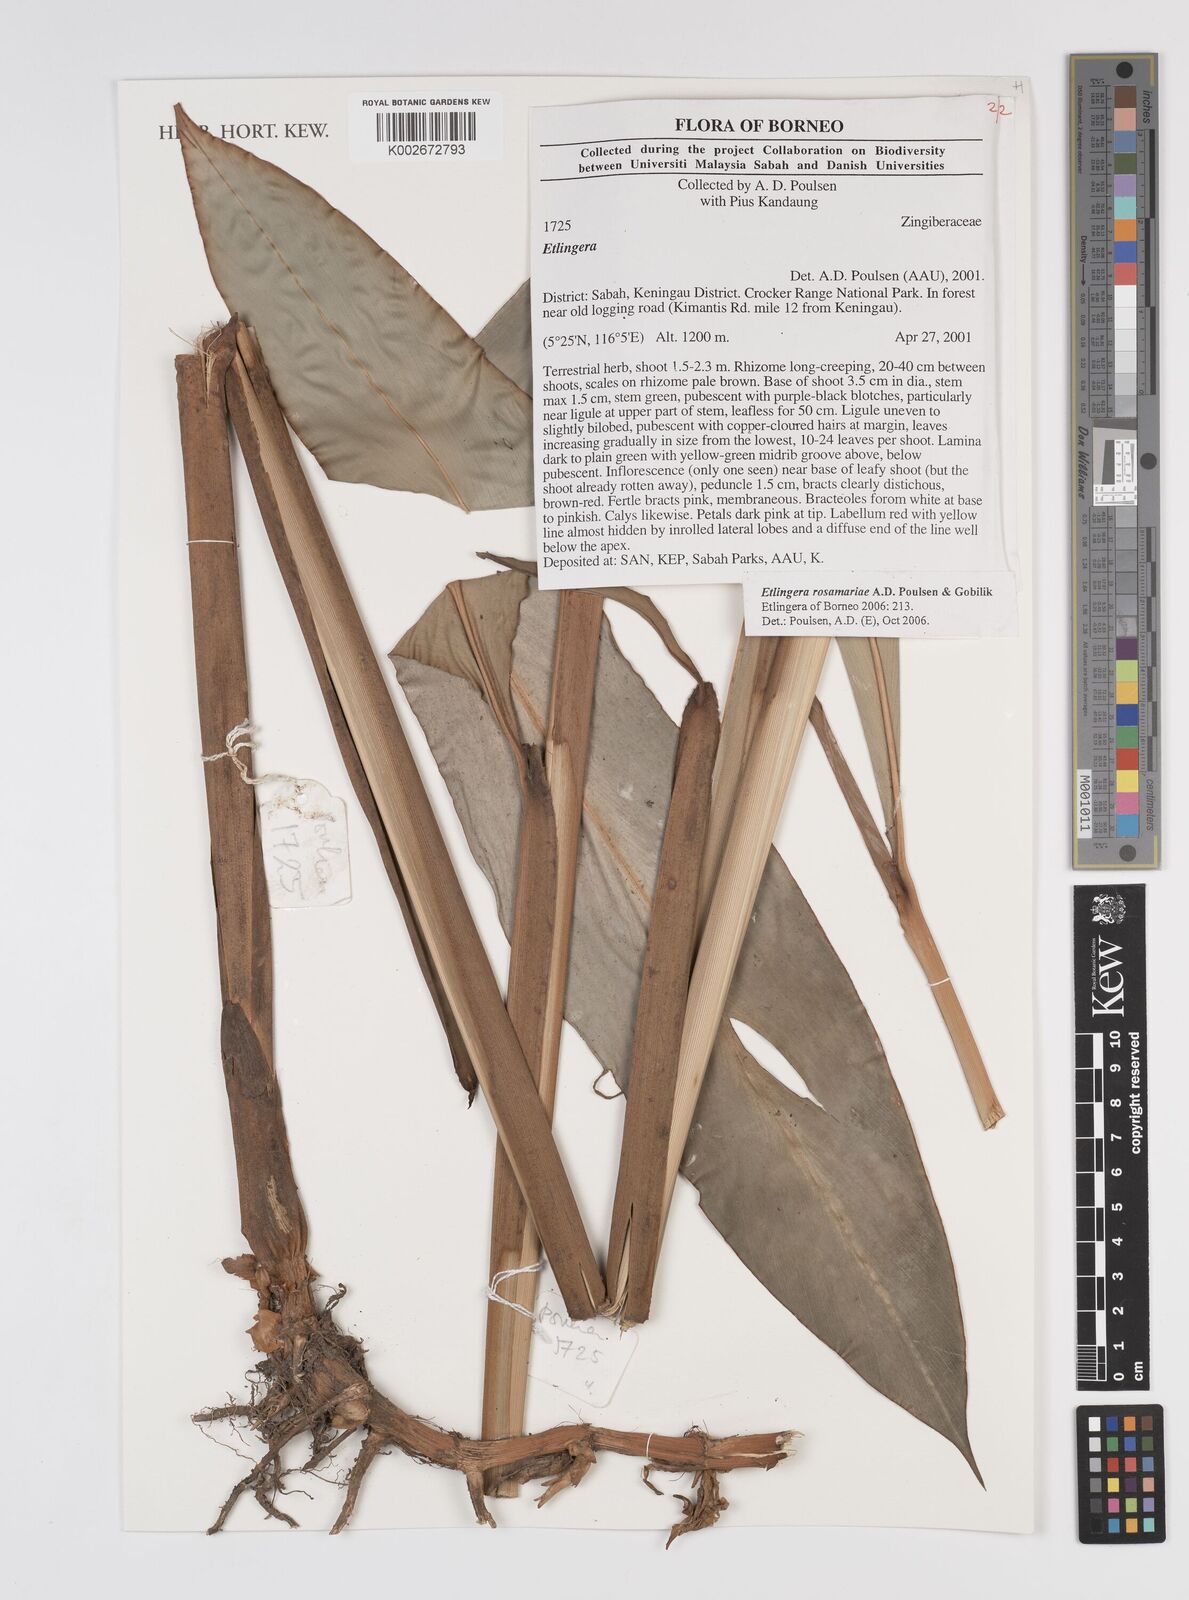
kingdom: Plantae
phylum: Tracheophyta
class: Liliopsida
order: Zingiberales
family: Zingiberaceae
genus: Etlingera
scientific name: Etlingera rosamariae
